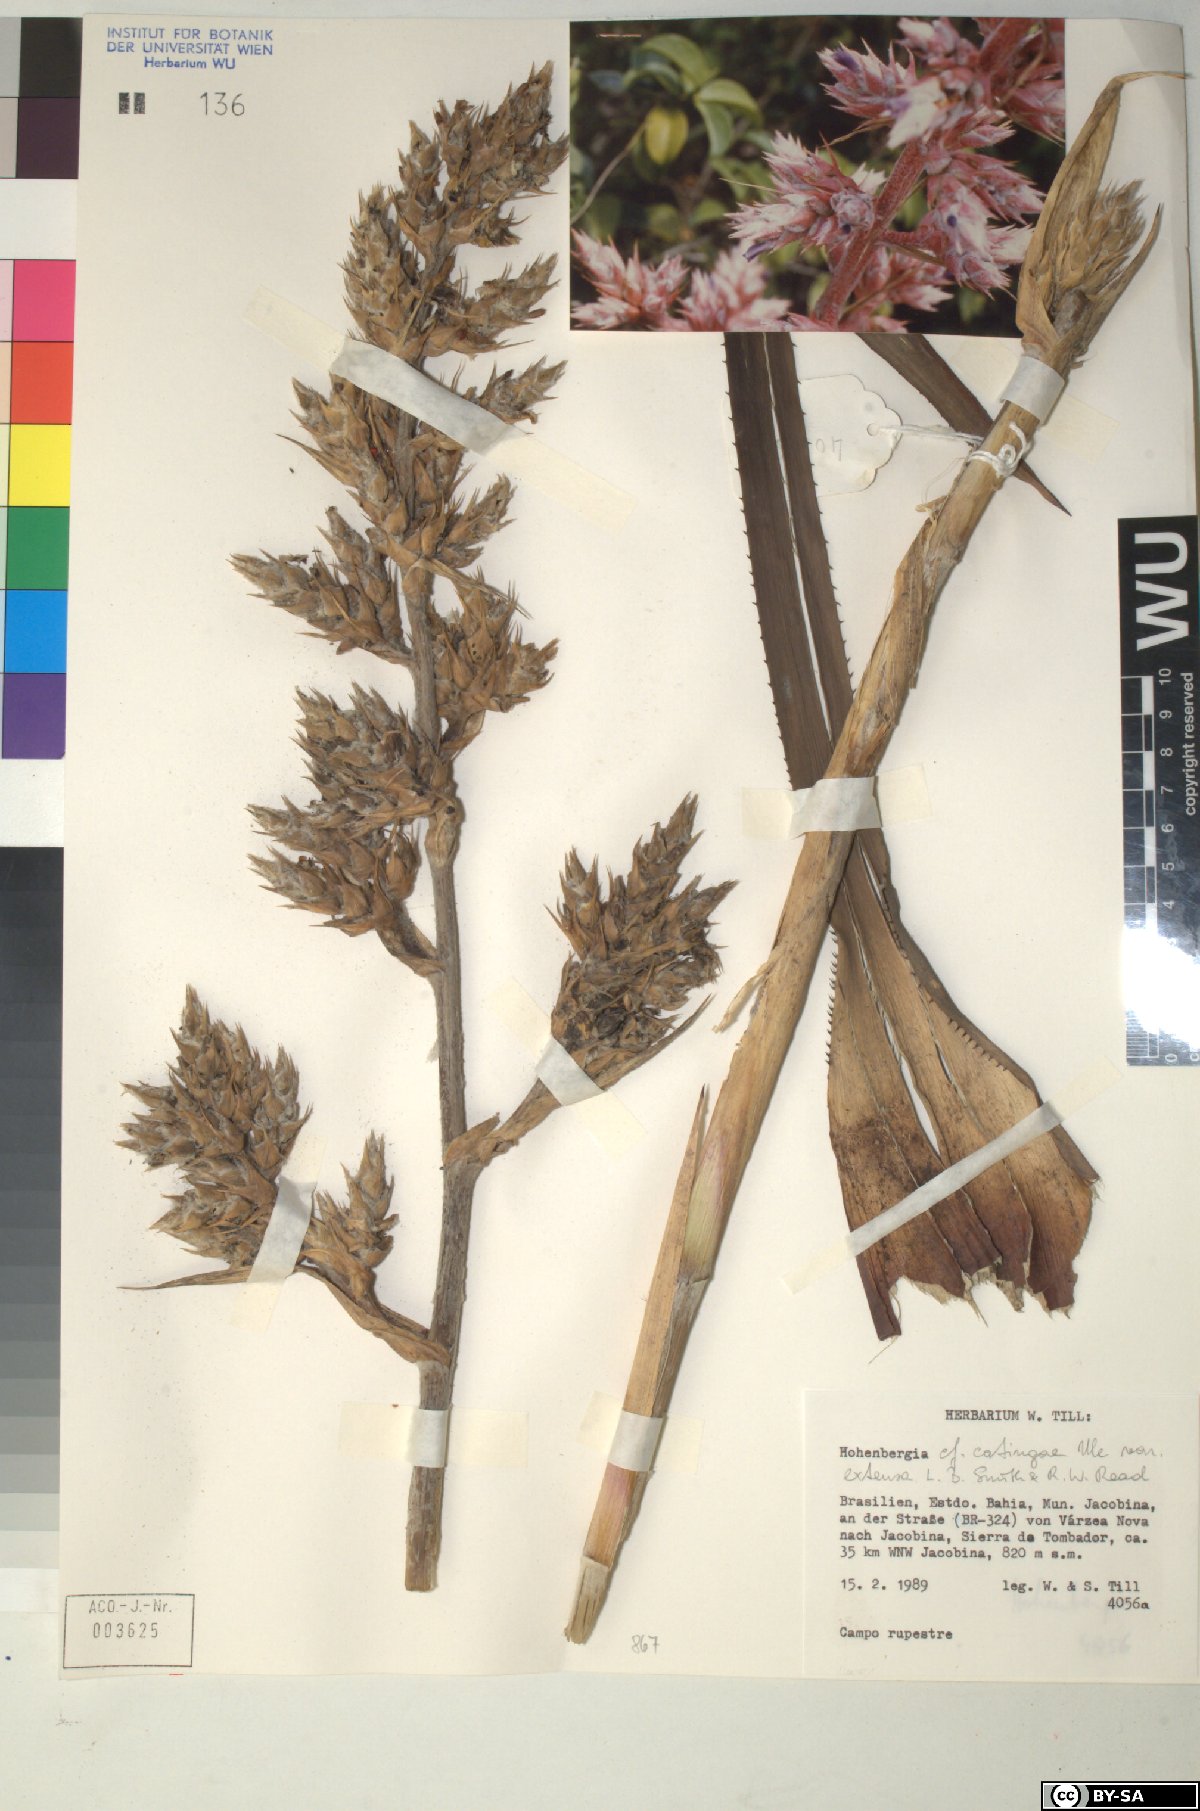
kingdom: Plantae
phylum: Tracheophyta
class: Liliopsida
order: Poales
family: Bromeliaceae
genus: Hohenbergia
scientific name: Hohenbergia
